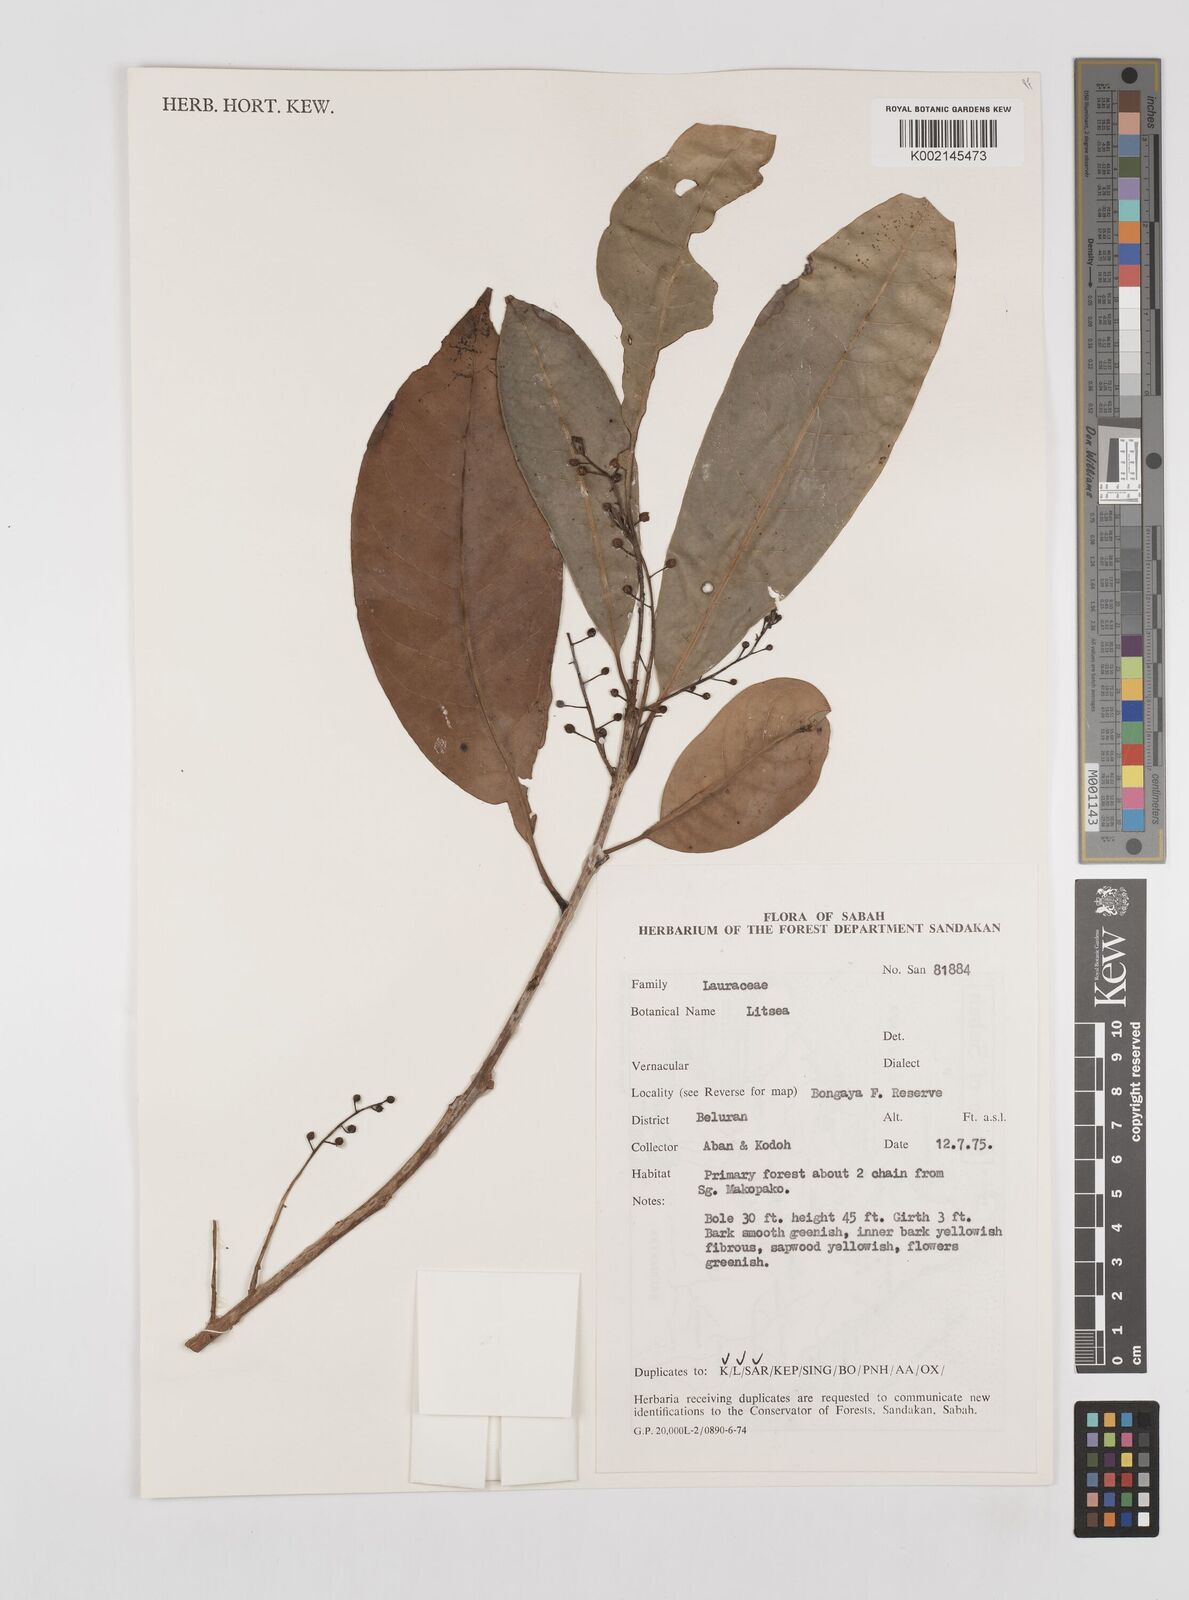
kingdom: Plantae
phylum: Tracheophyta
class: Magnoliopsida
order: Laurales
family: Lauraceae
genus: Litsea
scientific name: Litsea
